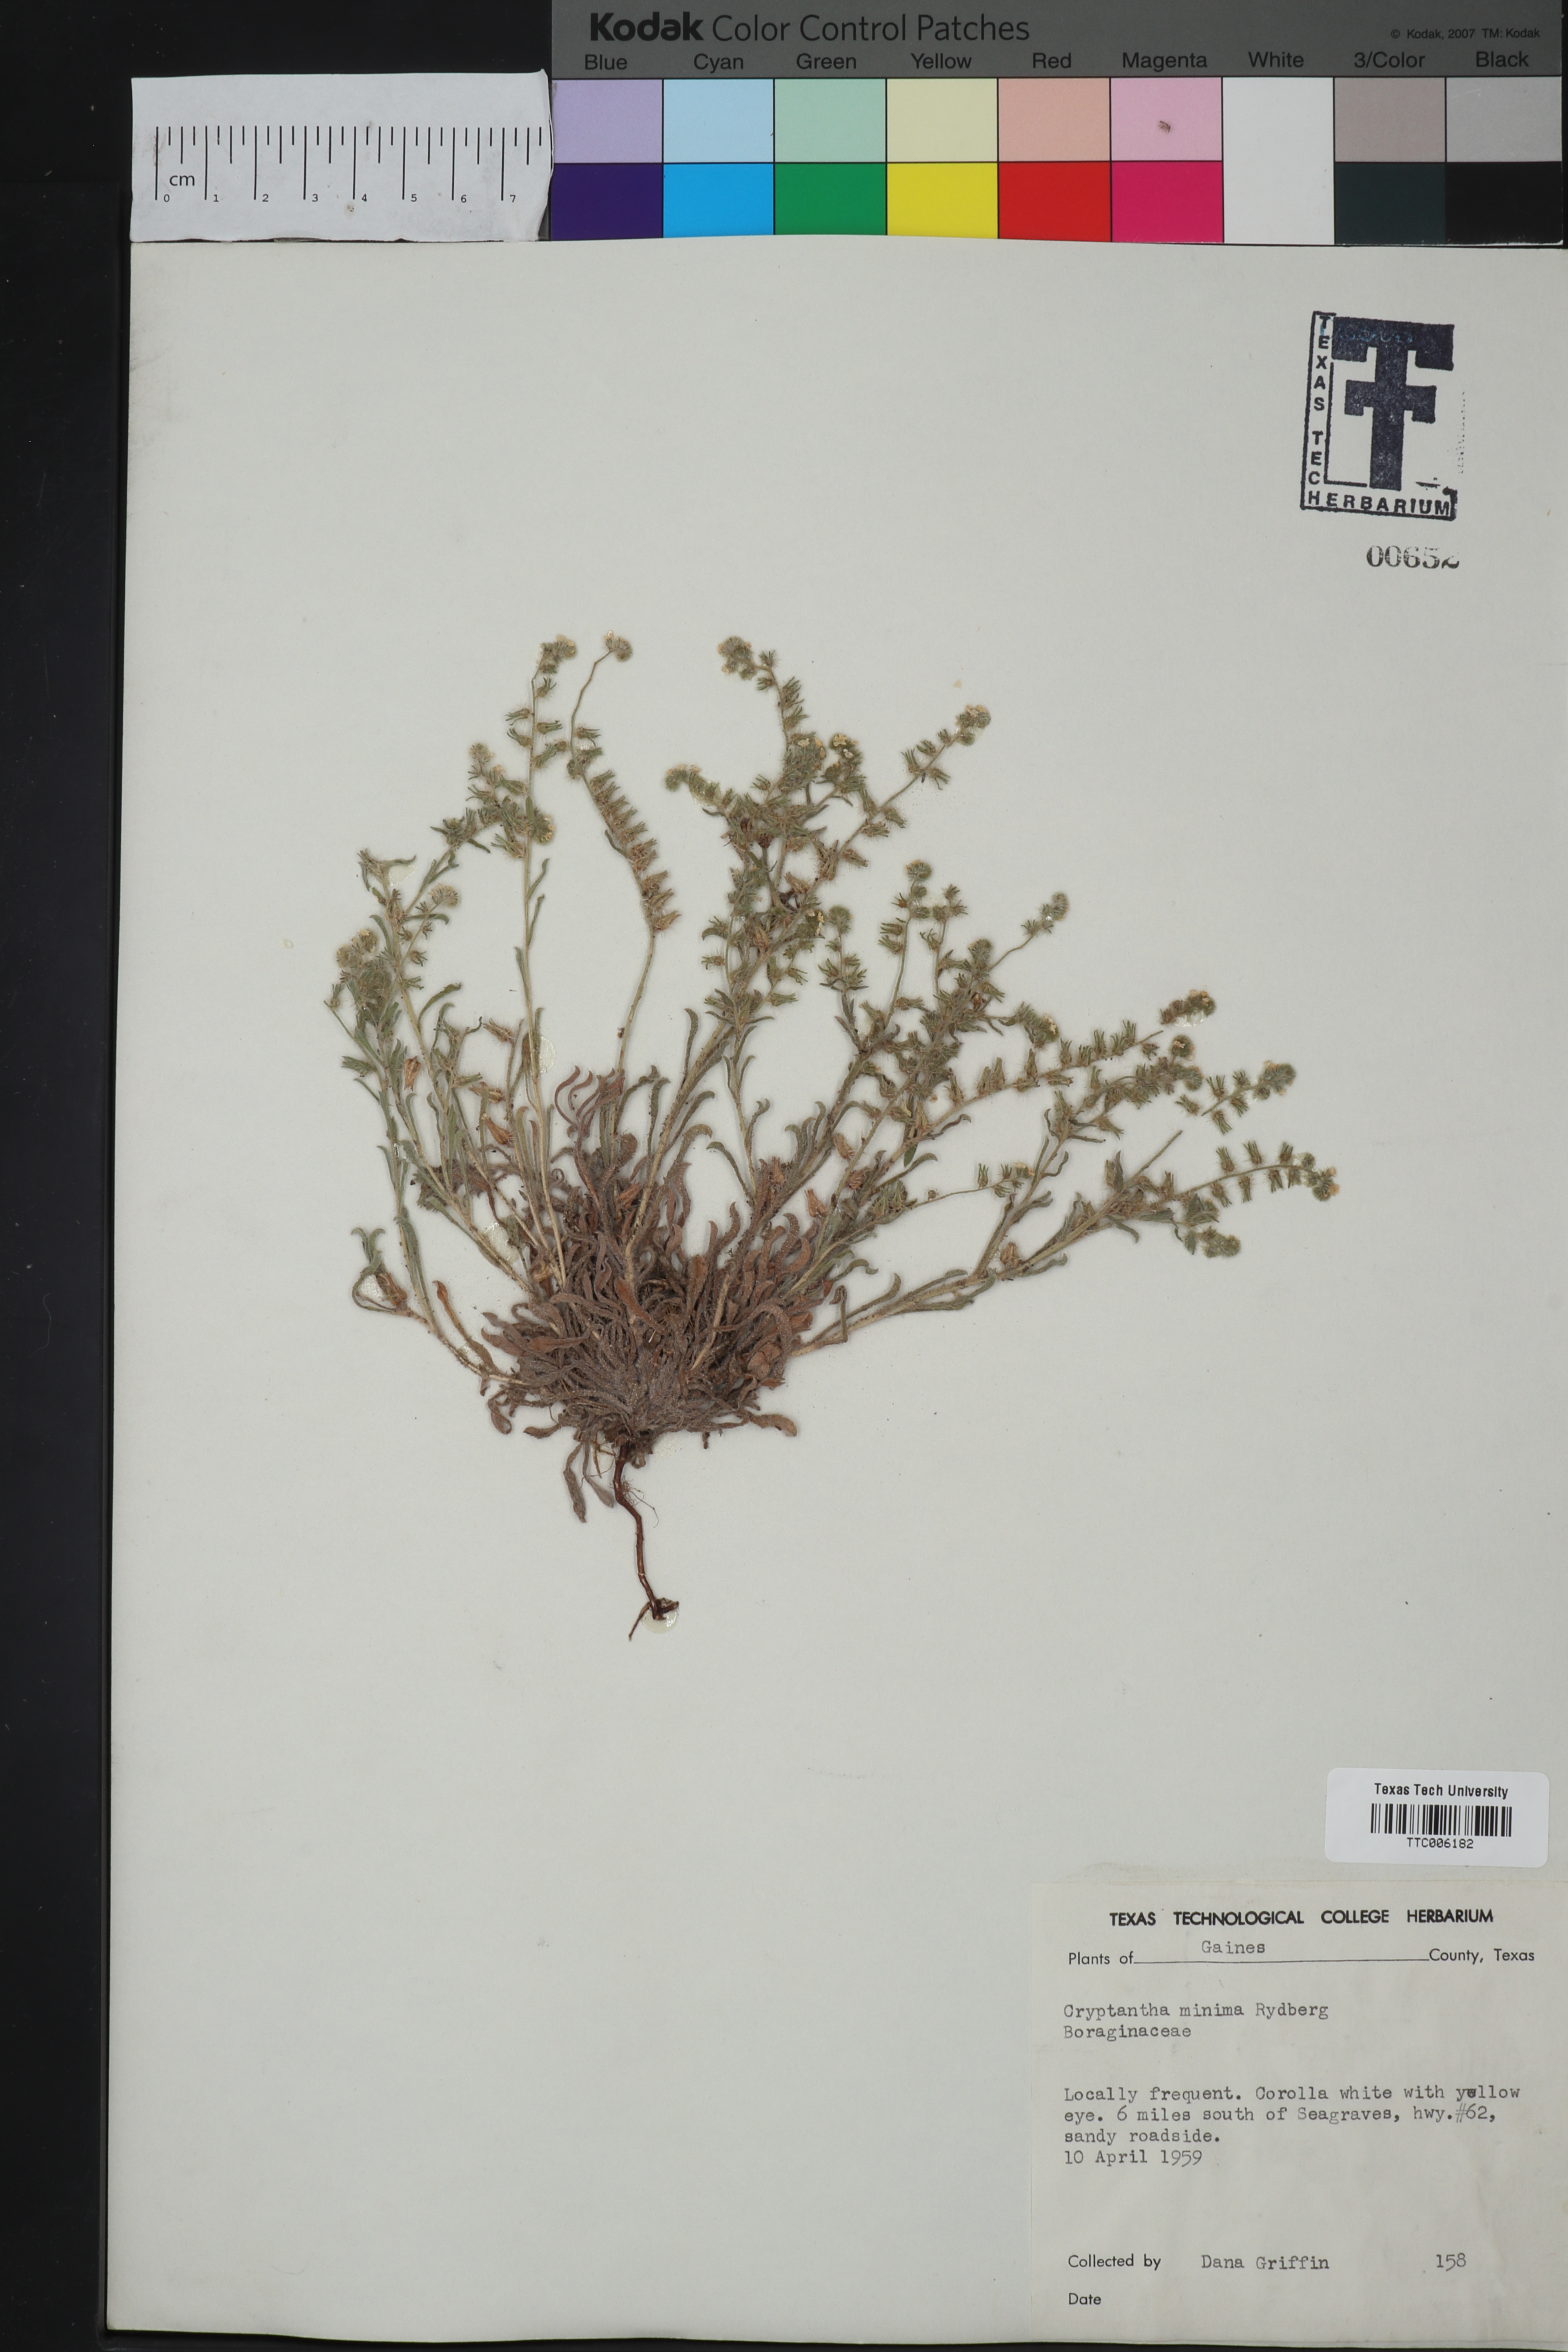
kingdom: Plantae
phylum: Tracheophyta
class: Magnoliopsida
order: Boraginales
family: Boraginaceae
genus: Cryptantha
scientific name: Cryptantha minima
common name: Little cat's-eye
